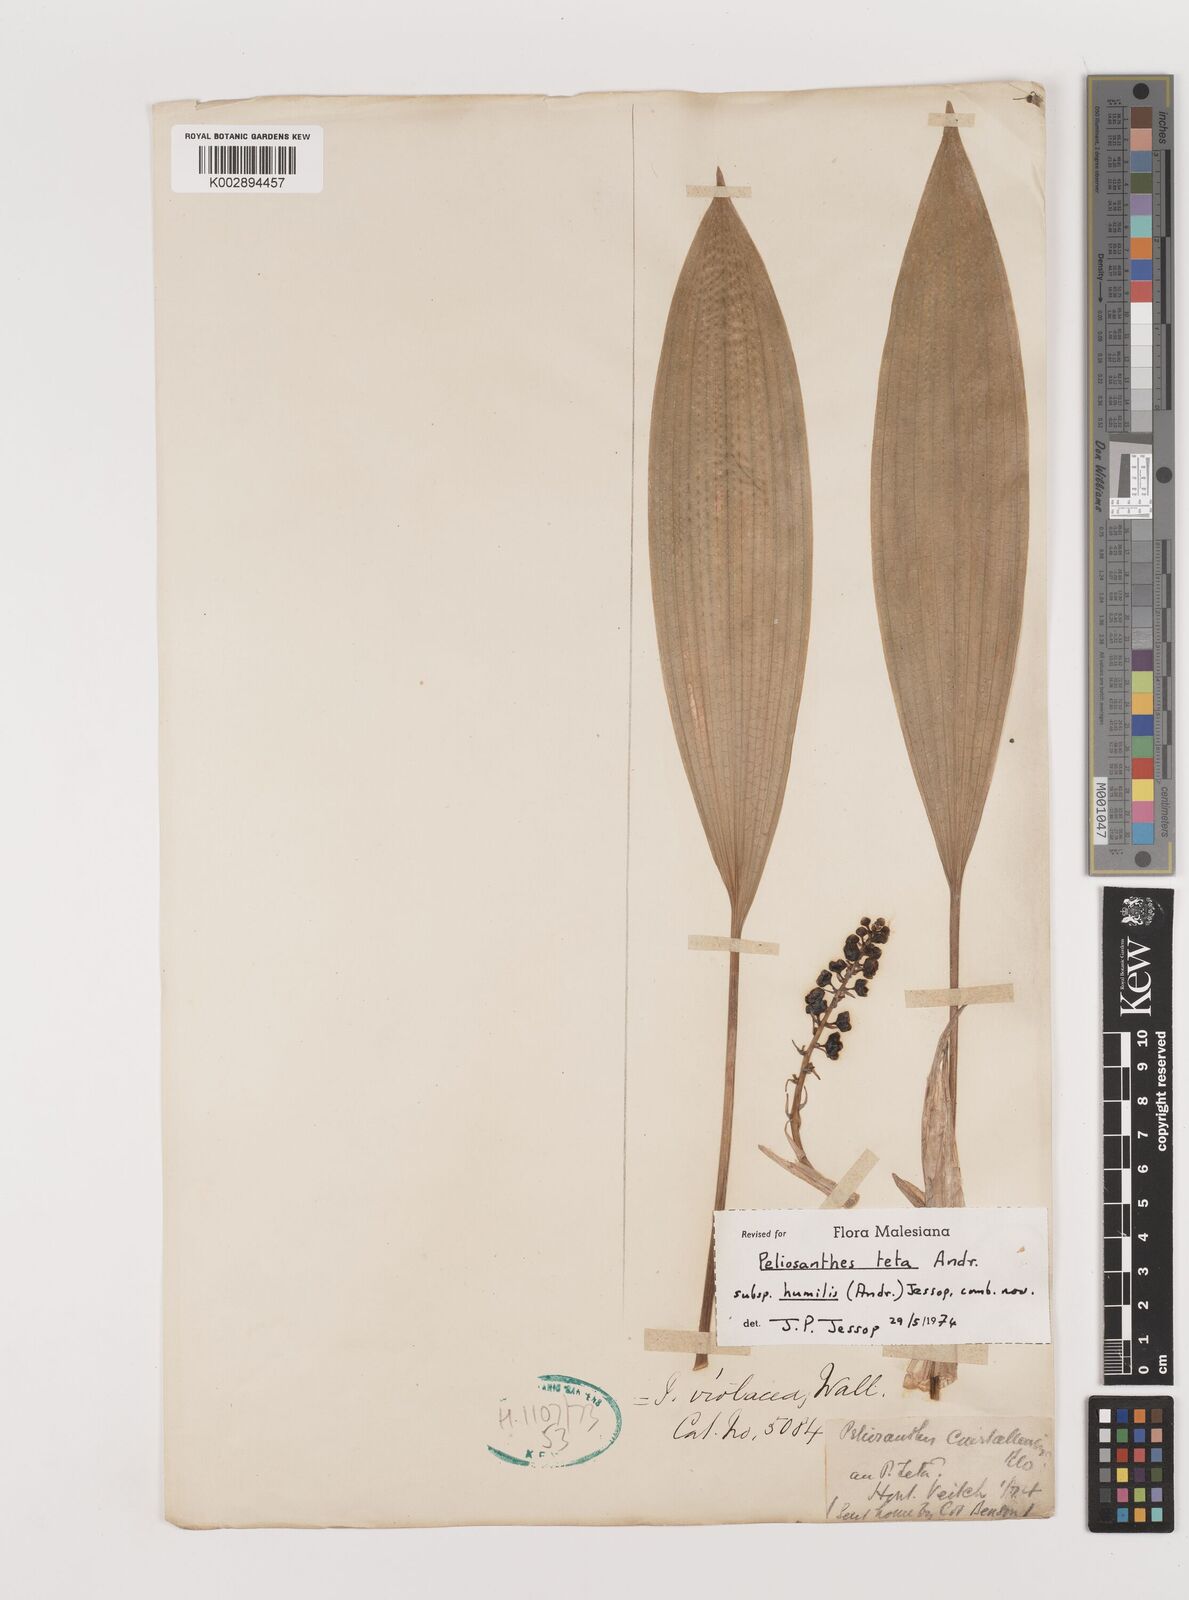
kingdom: Plantae
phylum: Tracheophyta
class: Liliopsida
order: Asparagales
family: Asparagaceae
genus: Peliosanthes
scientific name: Peliosanthes teta
